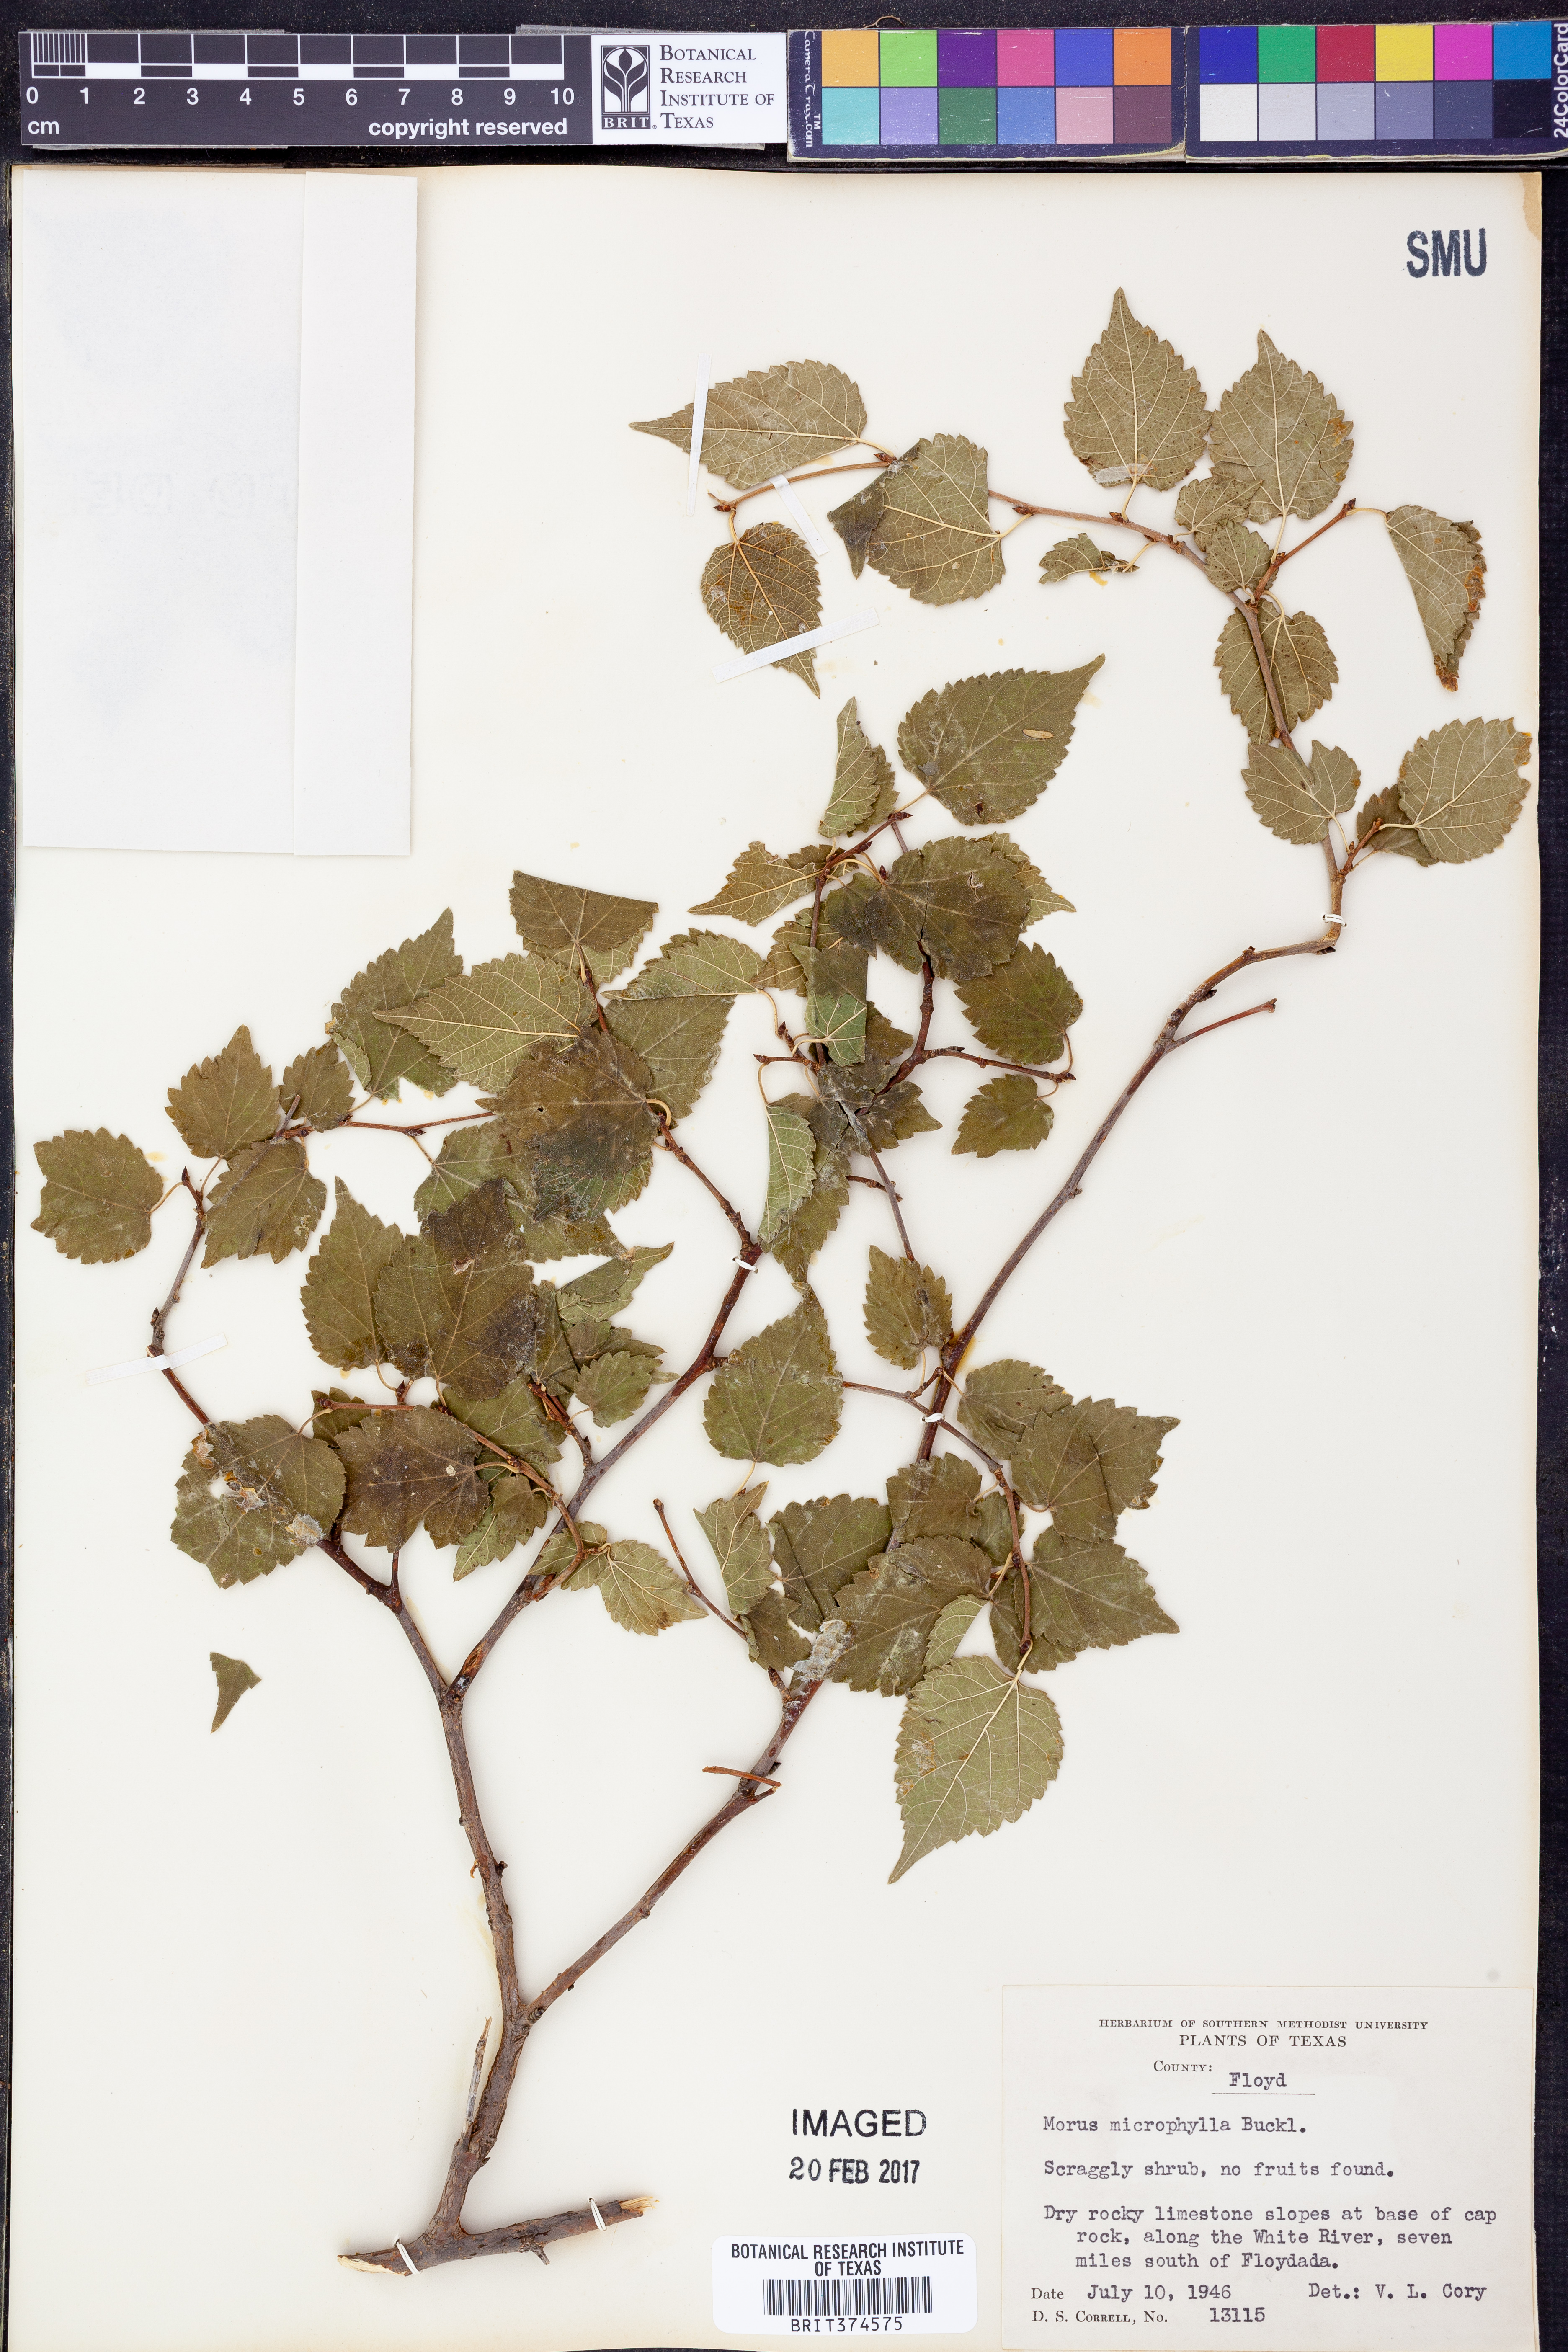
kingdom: Plantae
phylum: Tracheophyta
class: Magnoliopsida
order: Rosales
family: Moraceae
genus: Morus
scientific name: Morus microphylla
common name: Mexican mulberry
